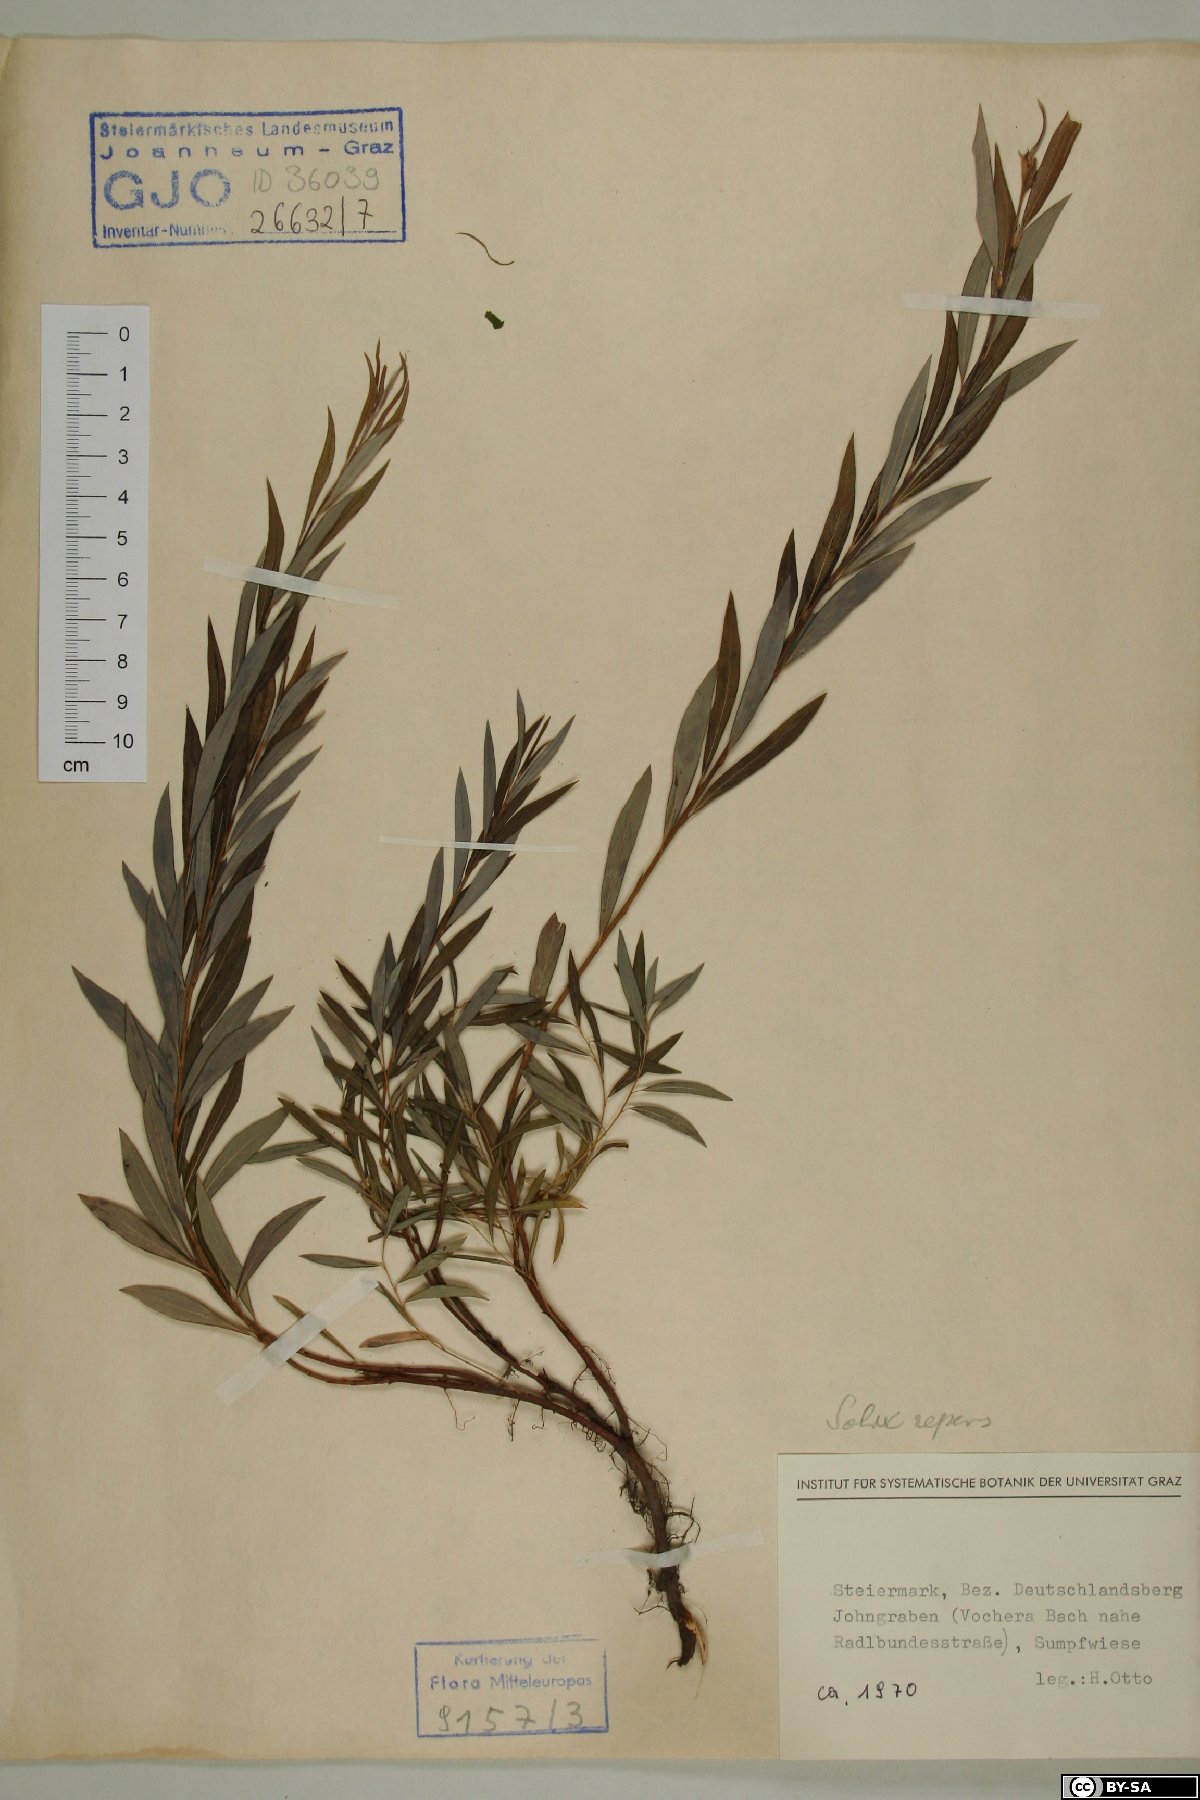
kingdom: Plantae
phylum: Tracheophyta
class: Magnoliopsida
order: Malpighiales
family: Salicaceae
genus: Salix
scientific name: Salix repens
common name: Creeping willow
